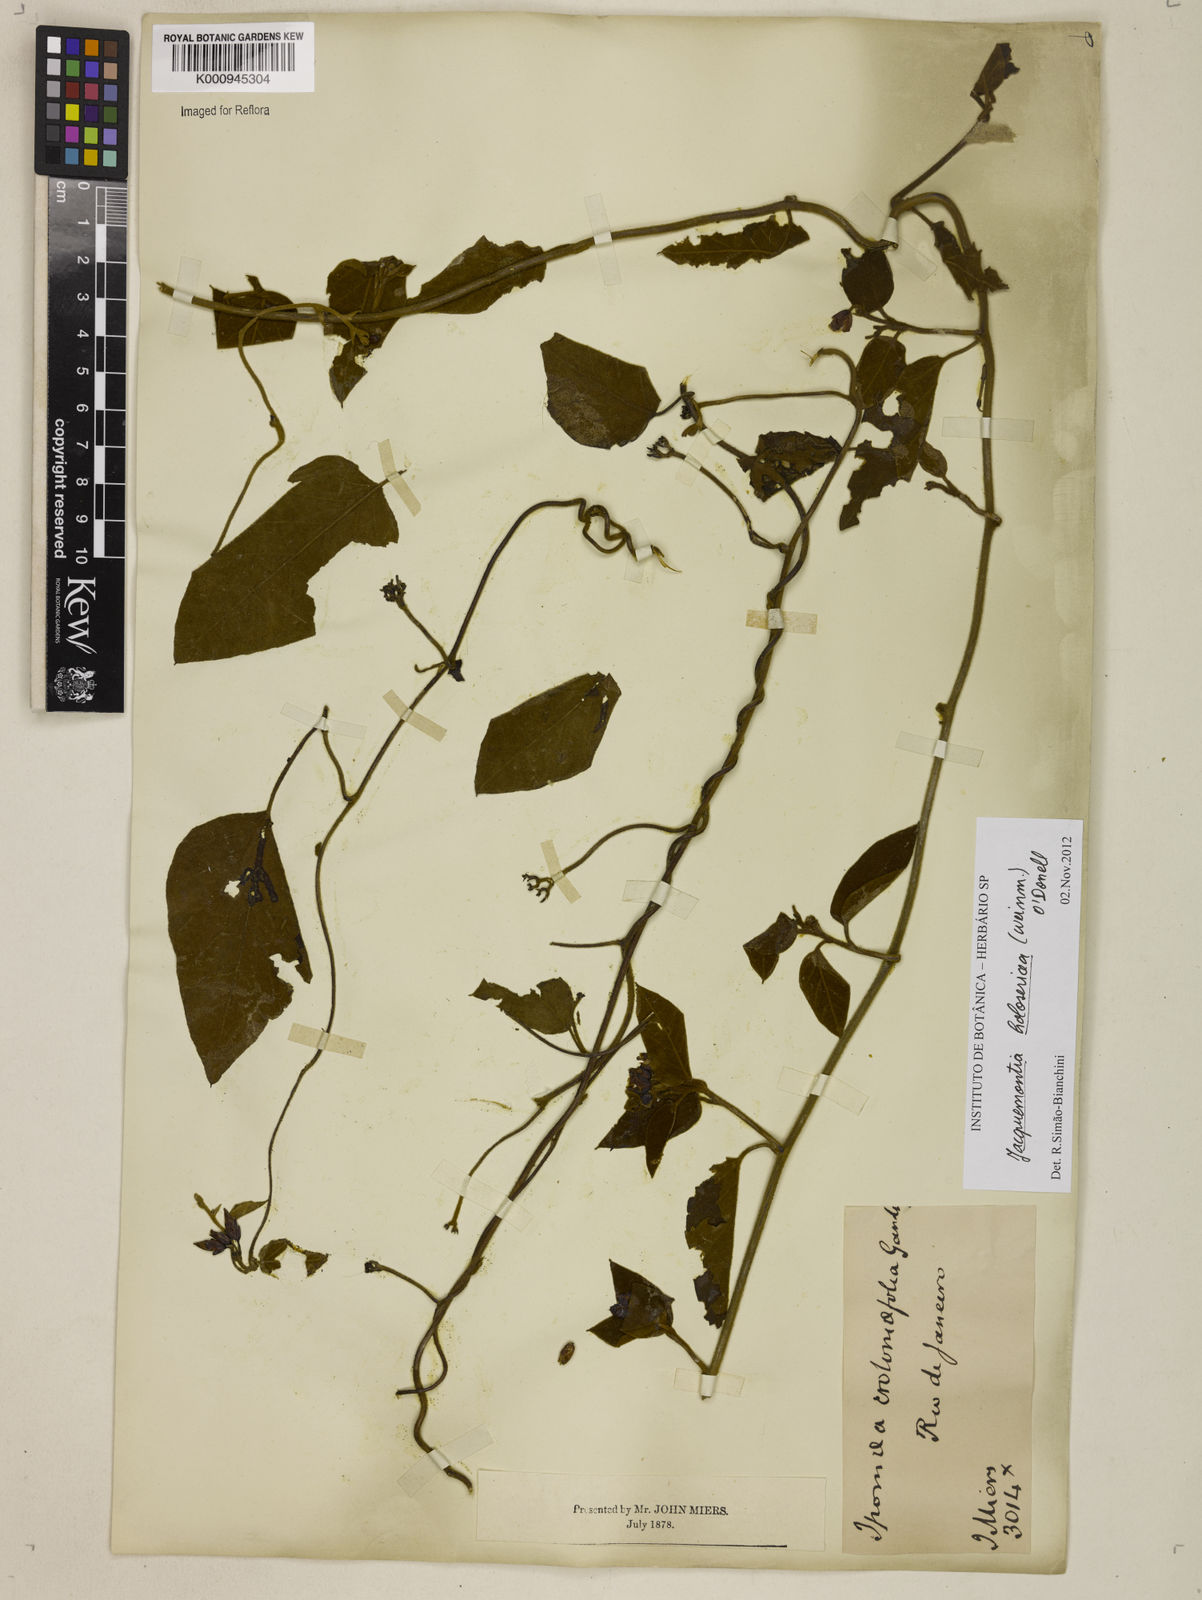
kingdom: Plantae
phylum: Tracheophyta
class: Magnoliopsida
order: Solanales
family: Convolvulaceae
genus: Jacquemontia
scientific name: Jacquemontia holosericea
